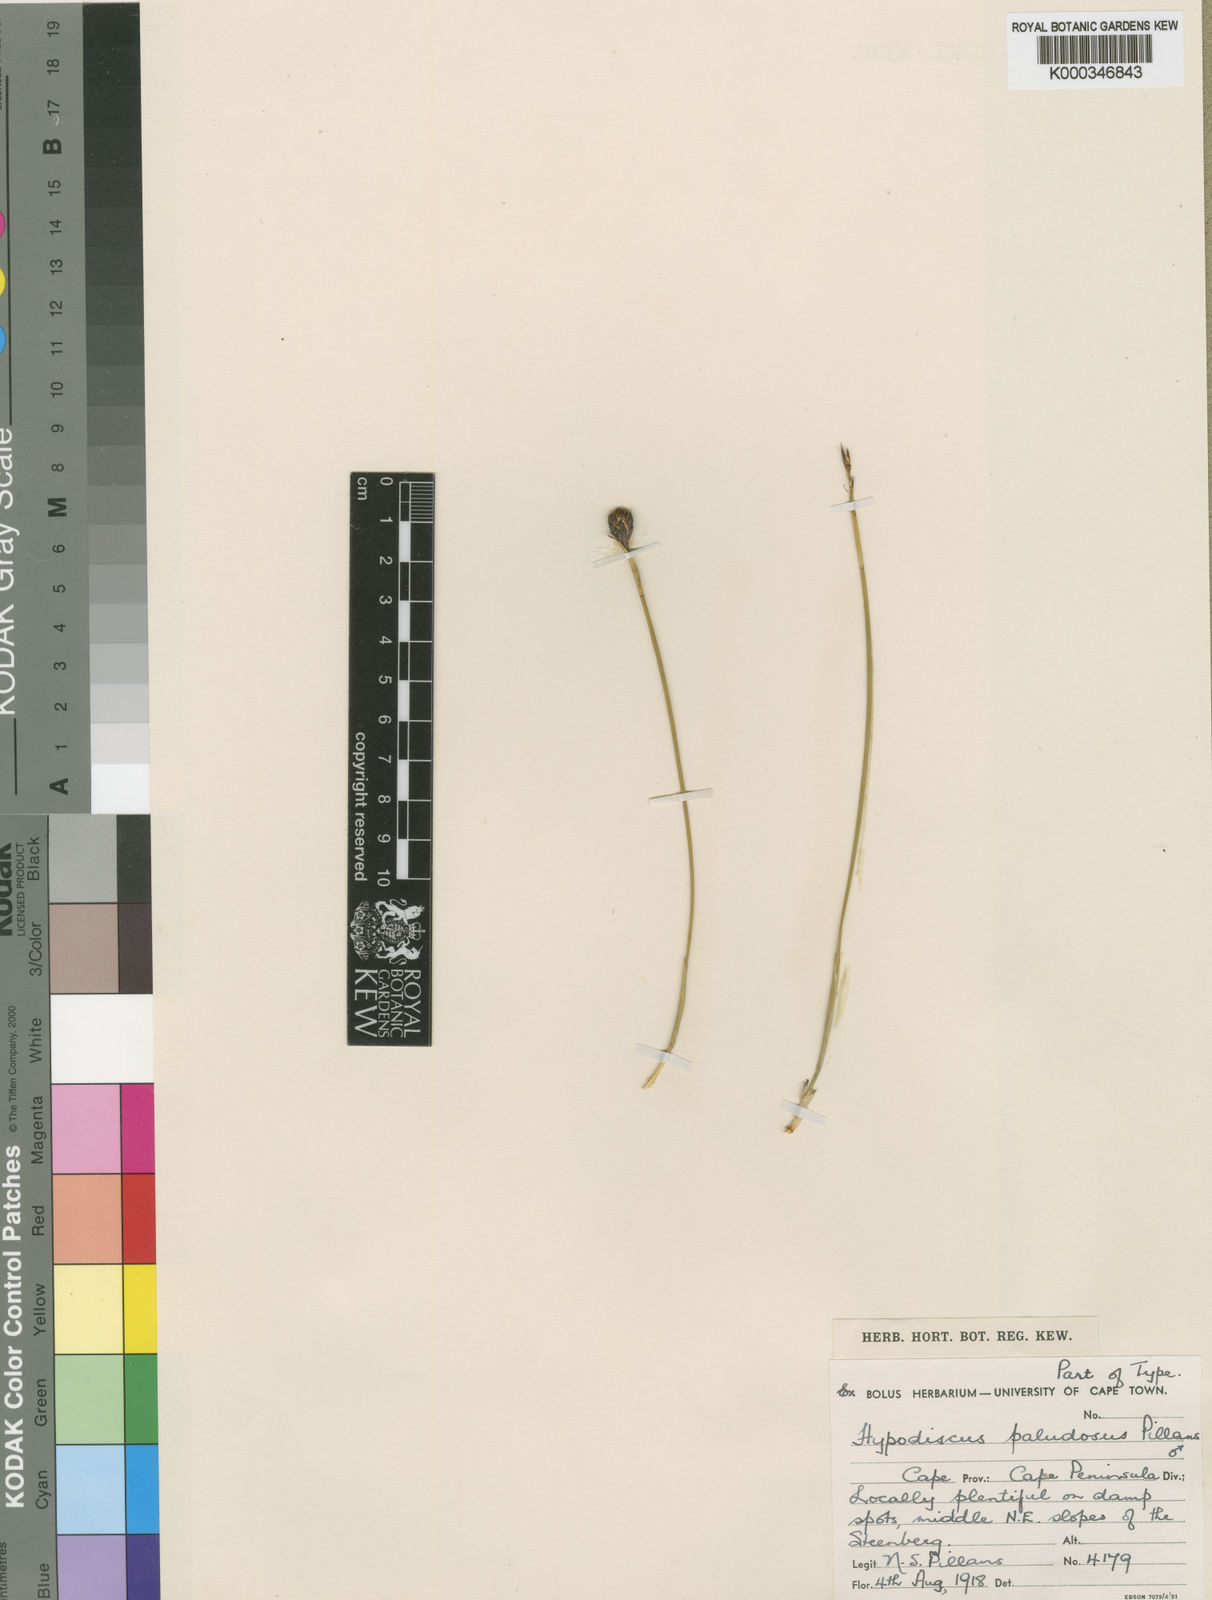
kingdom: Plantae
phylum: Tracheophyta
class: Liliopsida
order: Poales
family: Restionaceae
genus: Hypodiscus
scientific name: Hypodiscus rugosus
